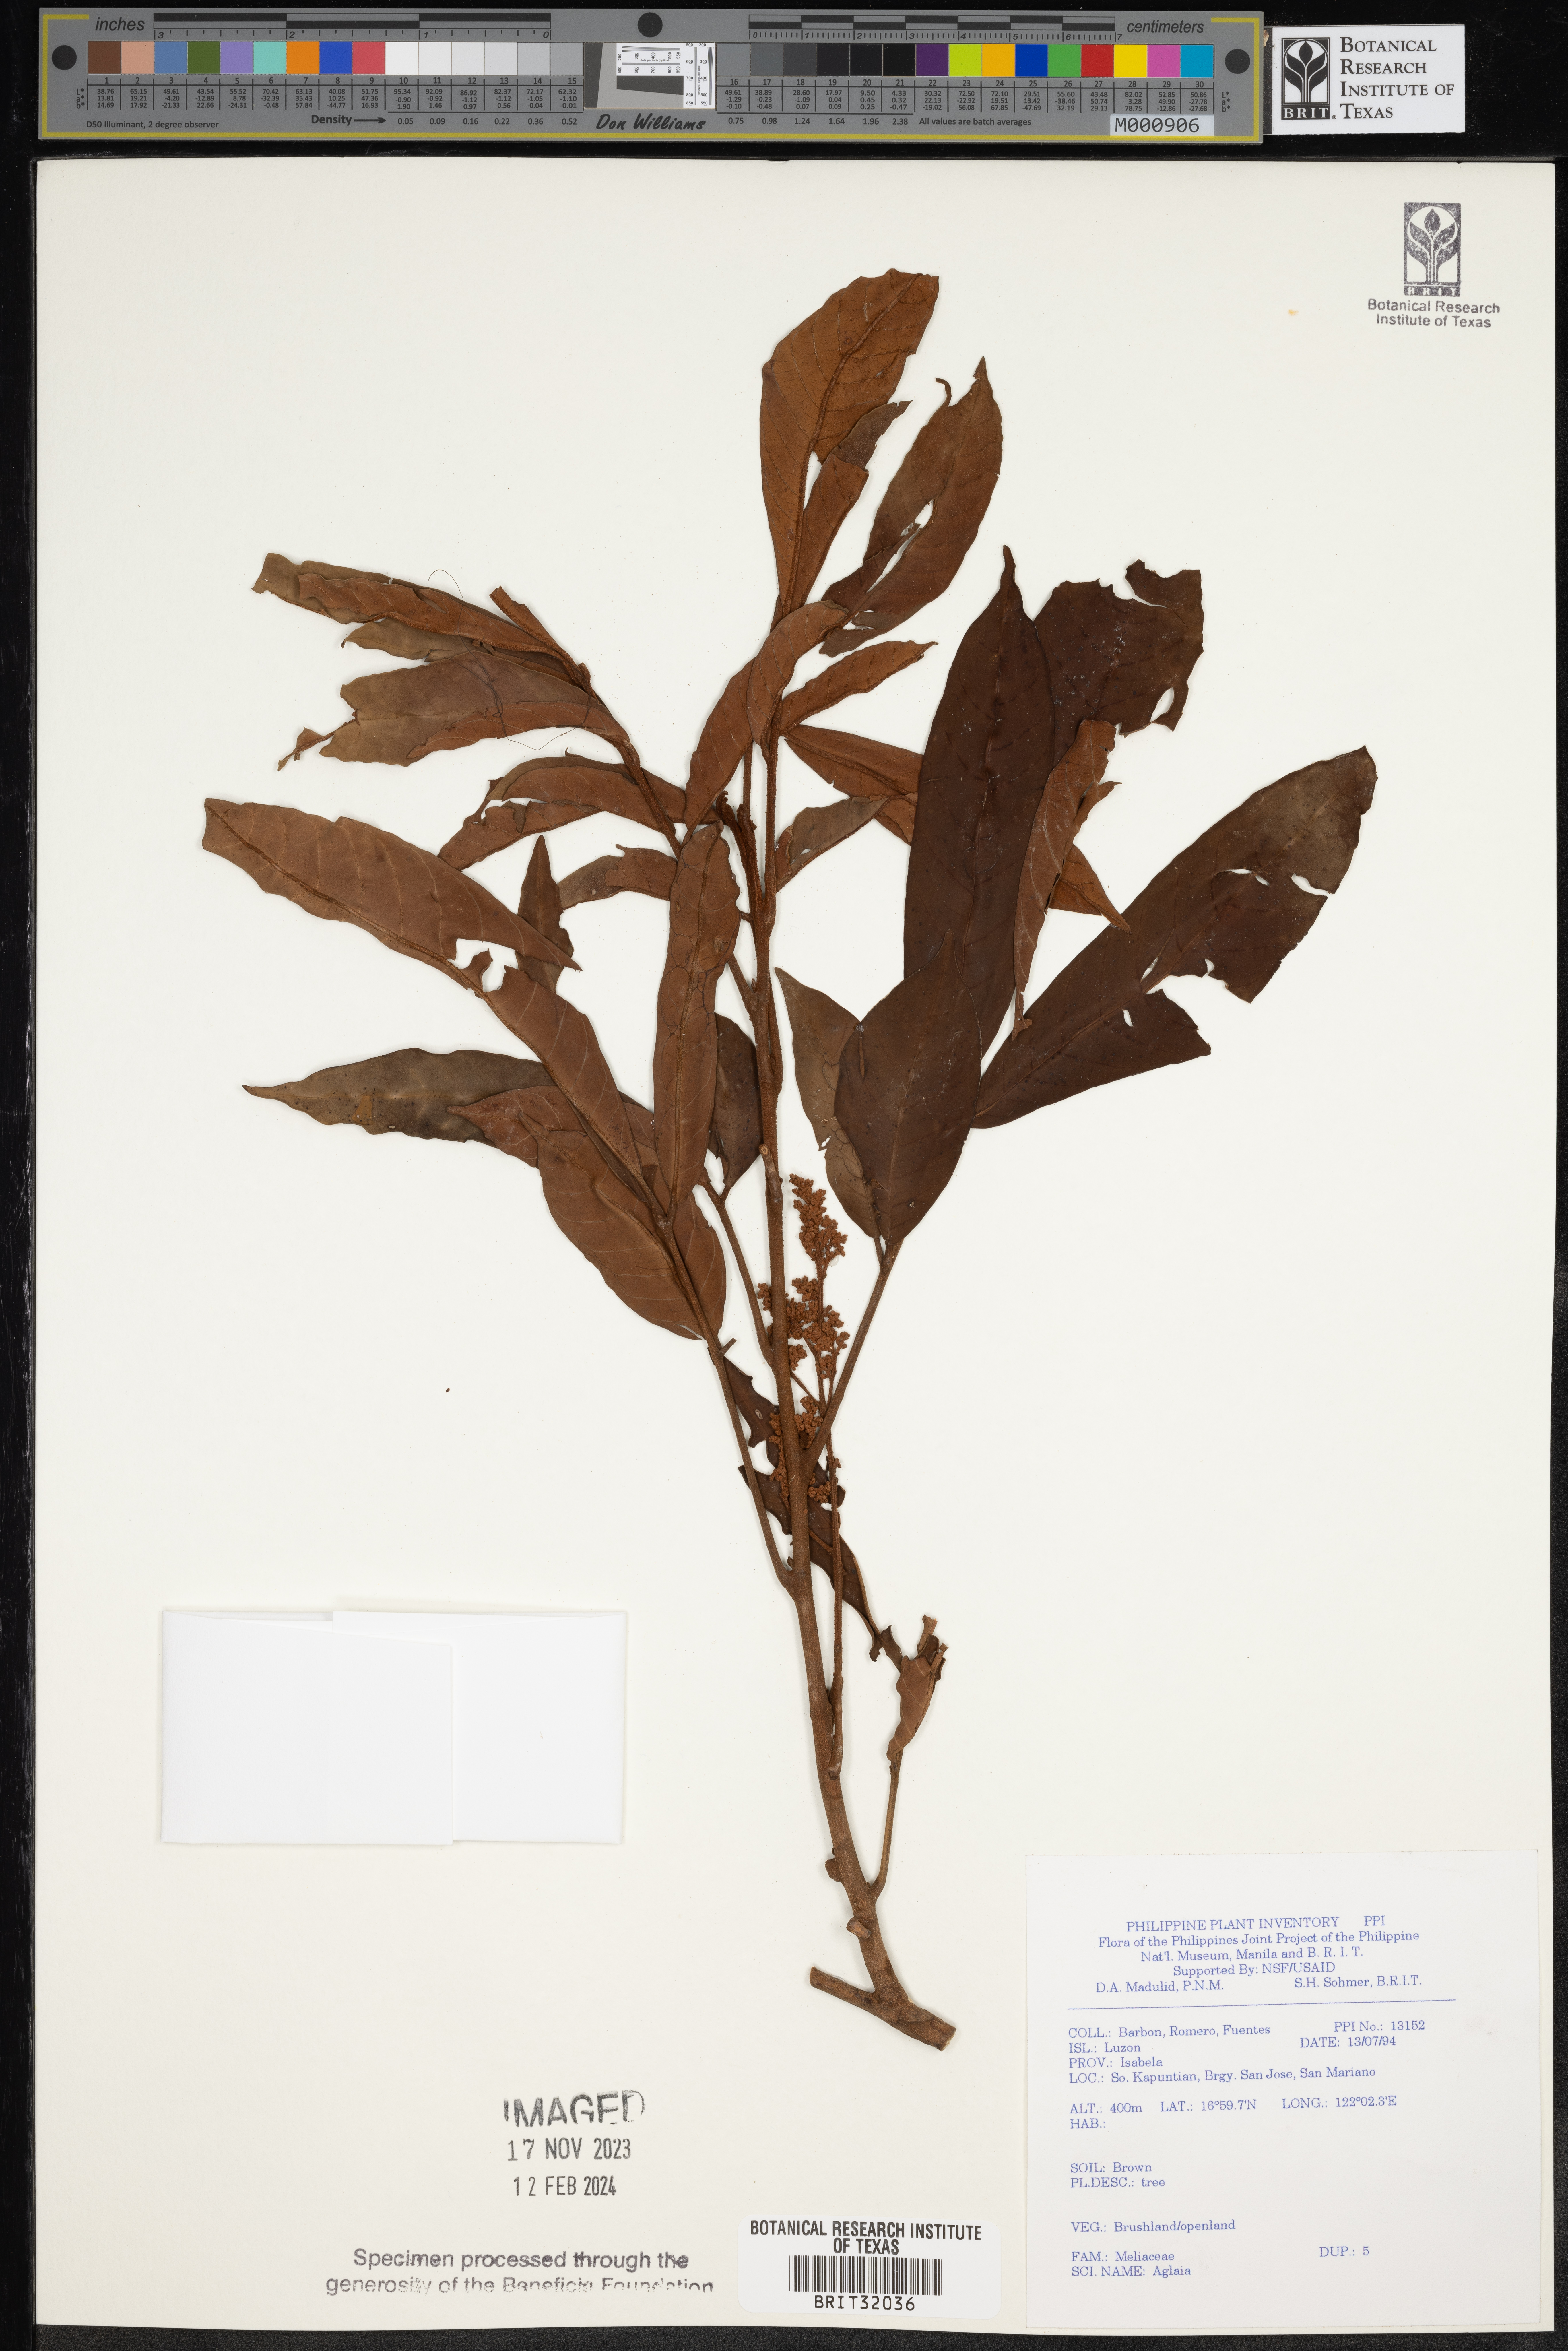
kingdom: Plantae
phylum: Tracheophyta
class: Magnoliopsida
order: Sapindales
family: Meliaceae
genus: Aglaia
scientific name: Aglaia
